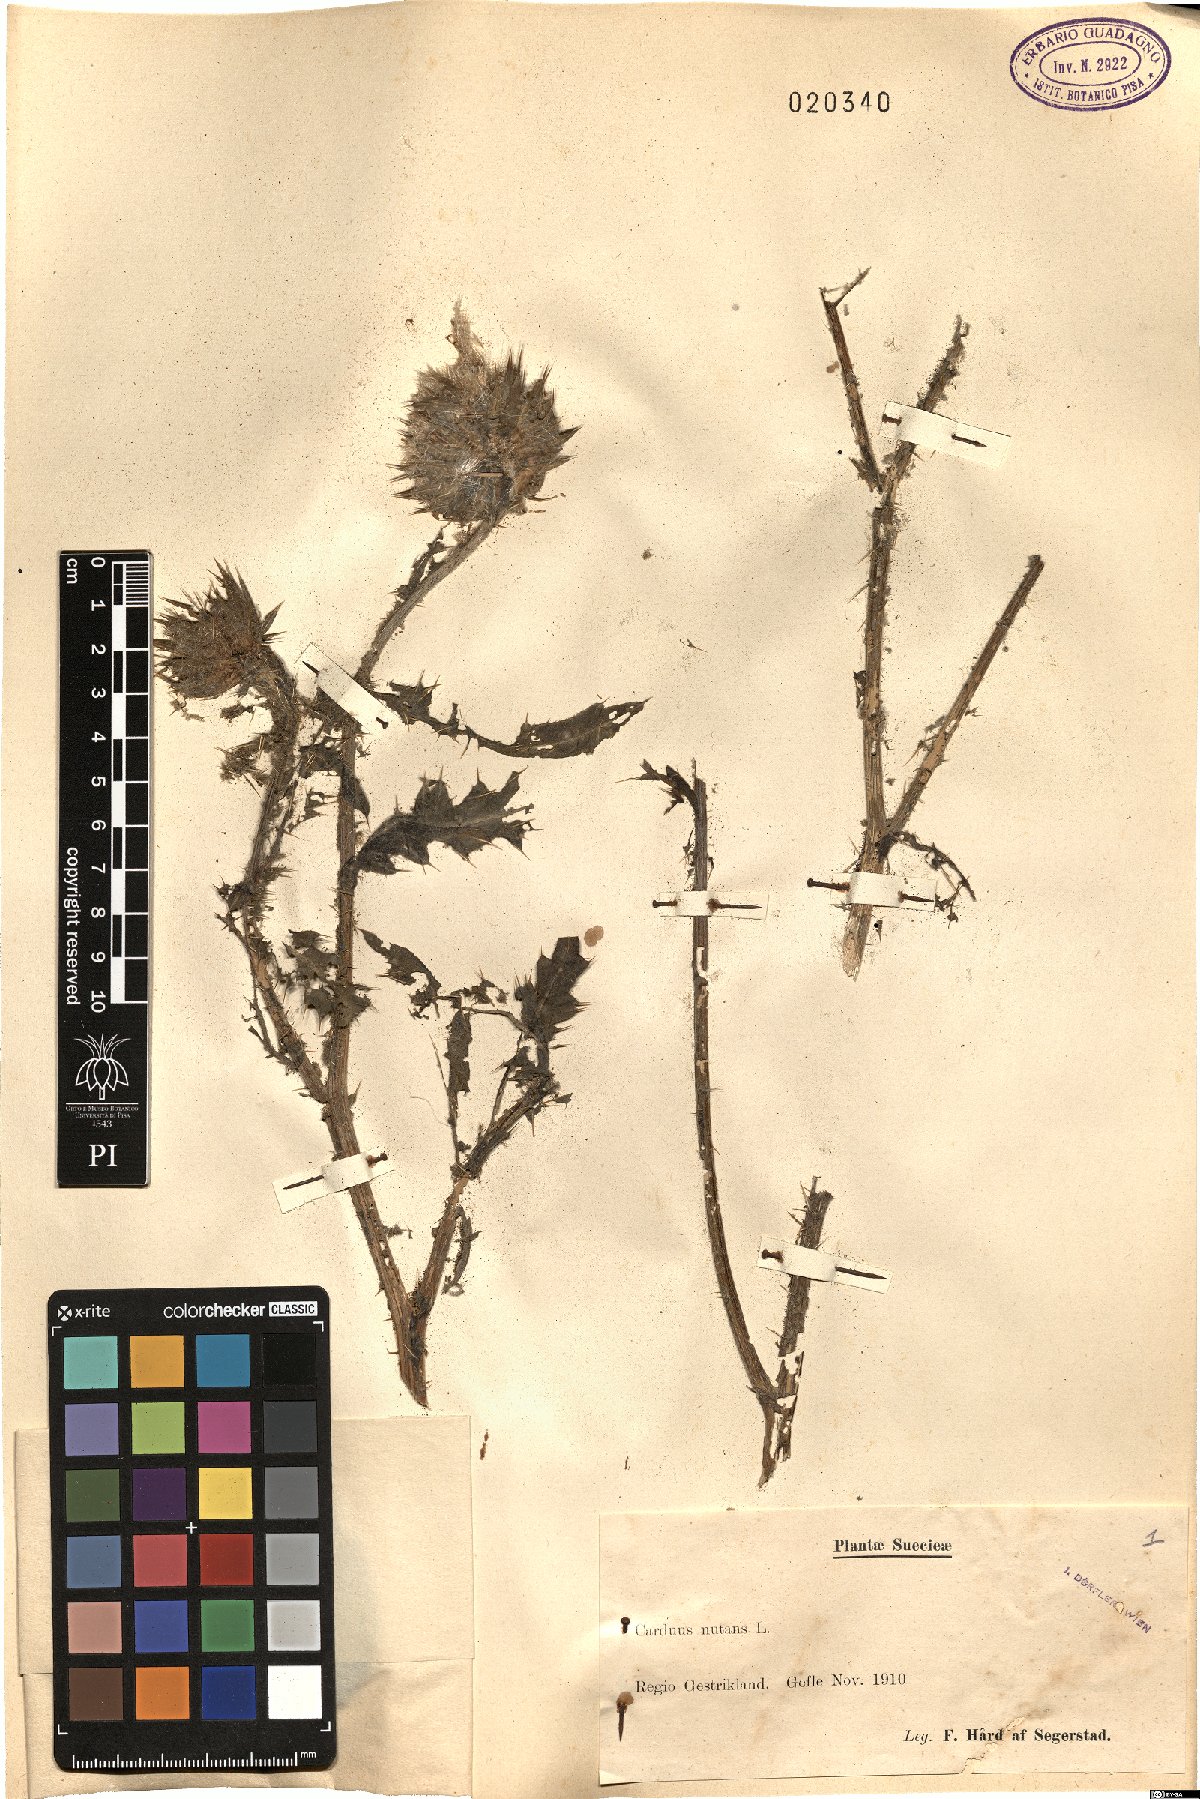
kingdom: Plantae
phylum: Tracheophyta
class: Magnoliopsida
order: Asterales
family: Asteraceae
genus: Carduus
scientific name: Carduus nutans
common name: Musk thistle
